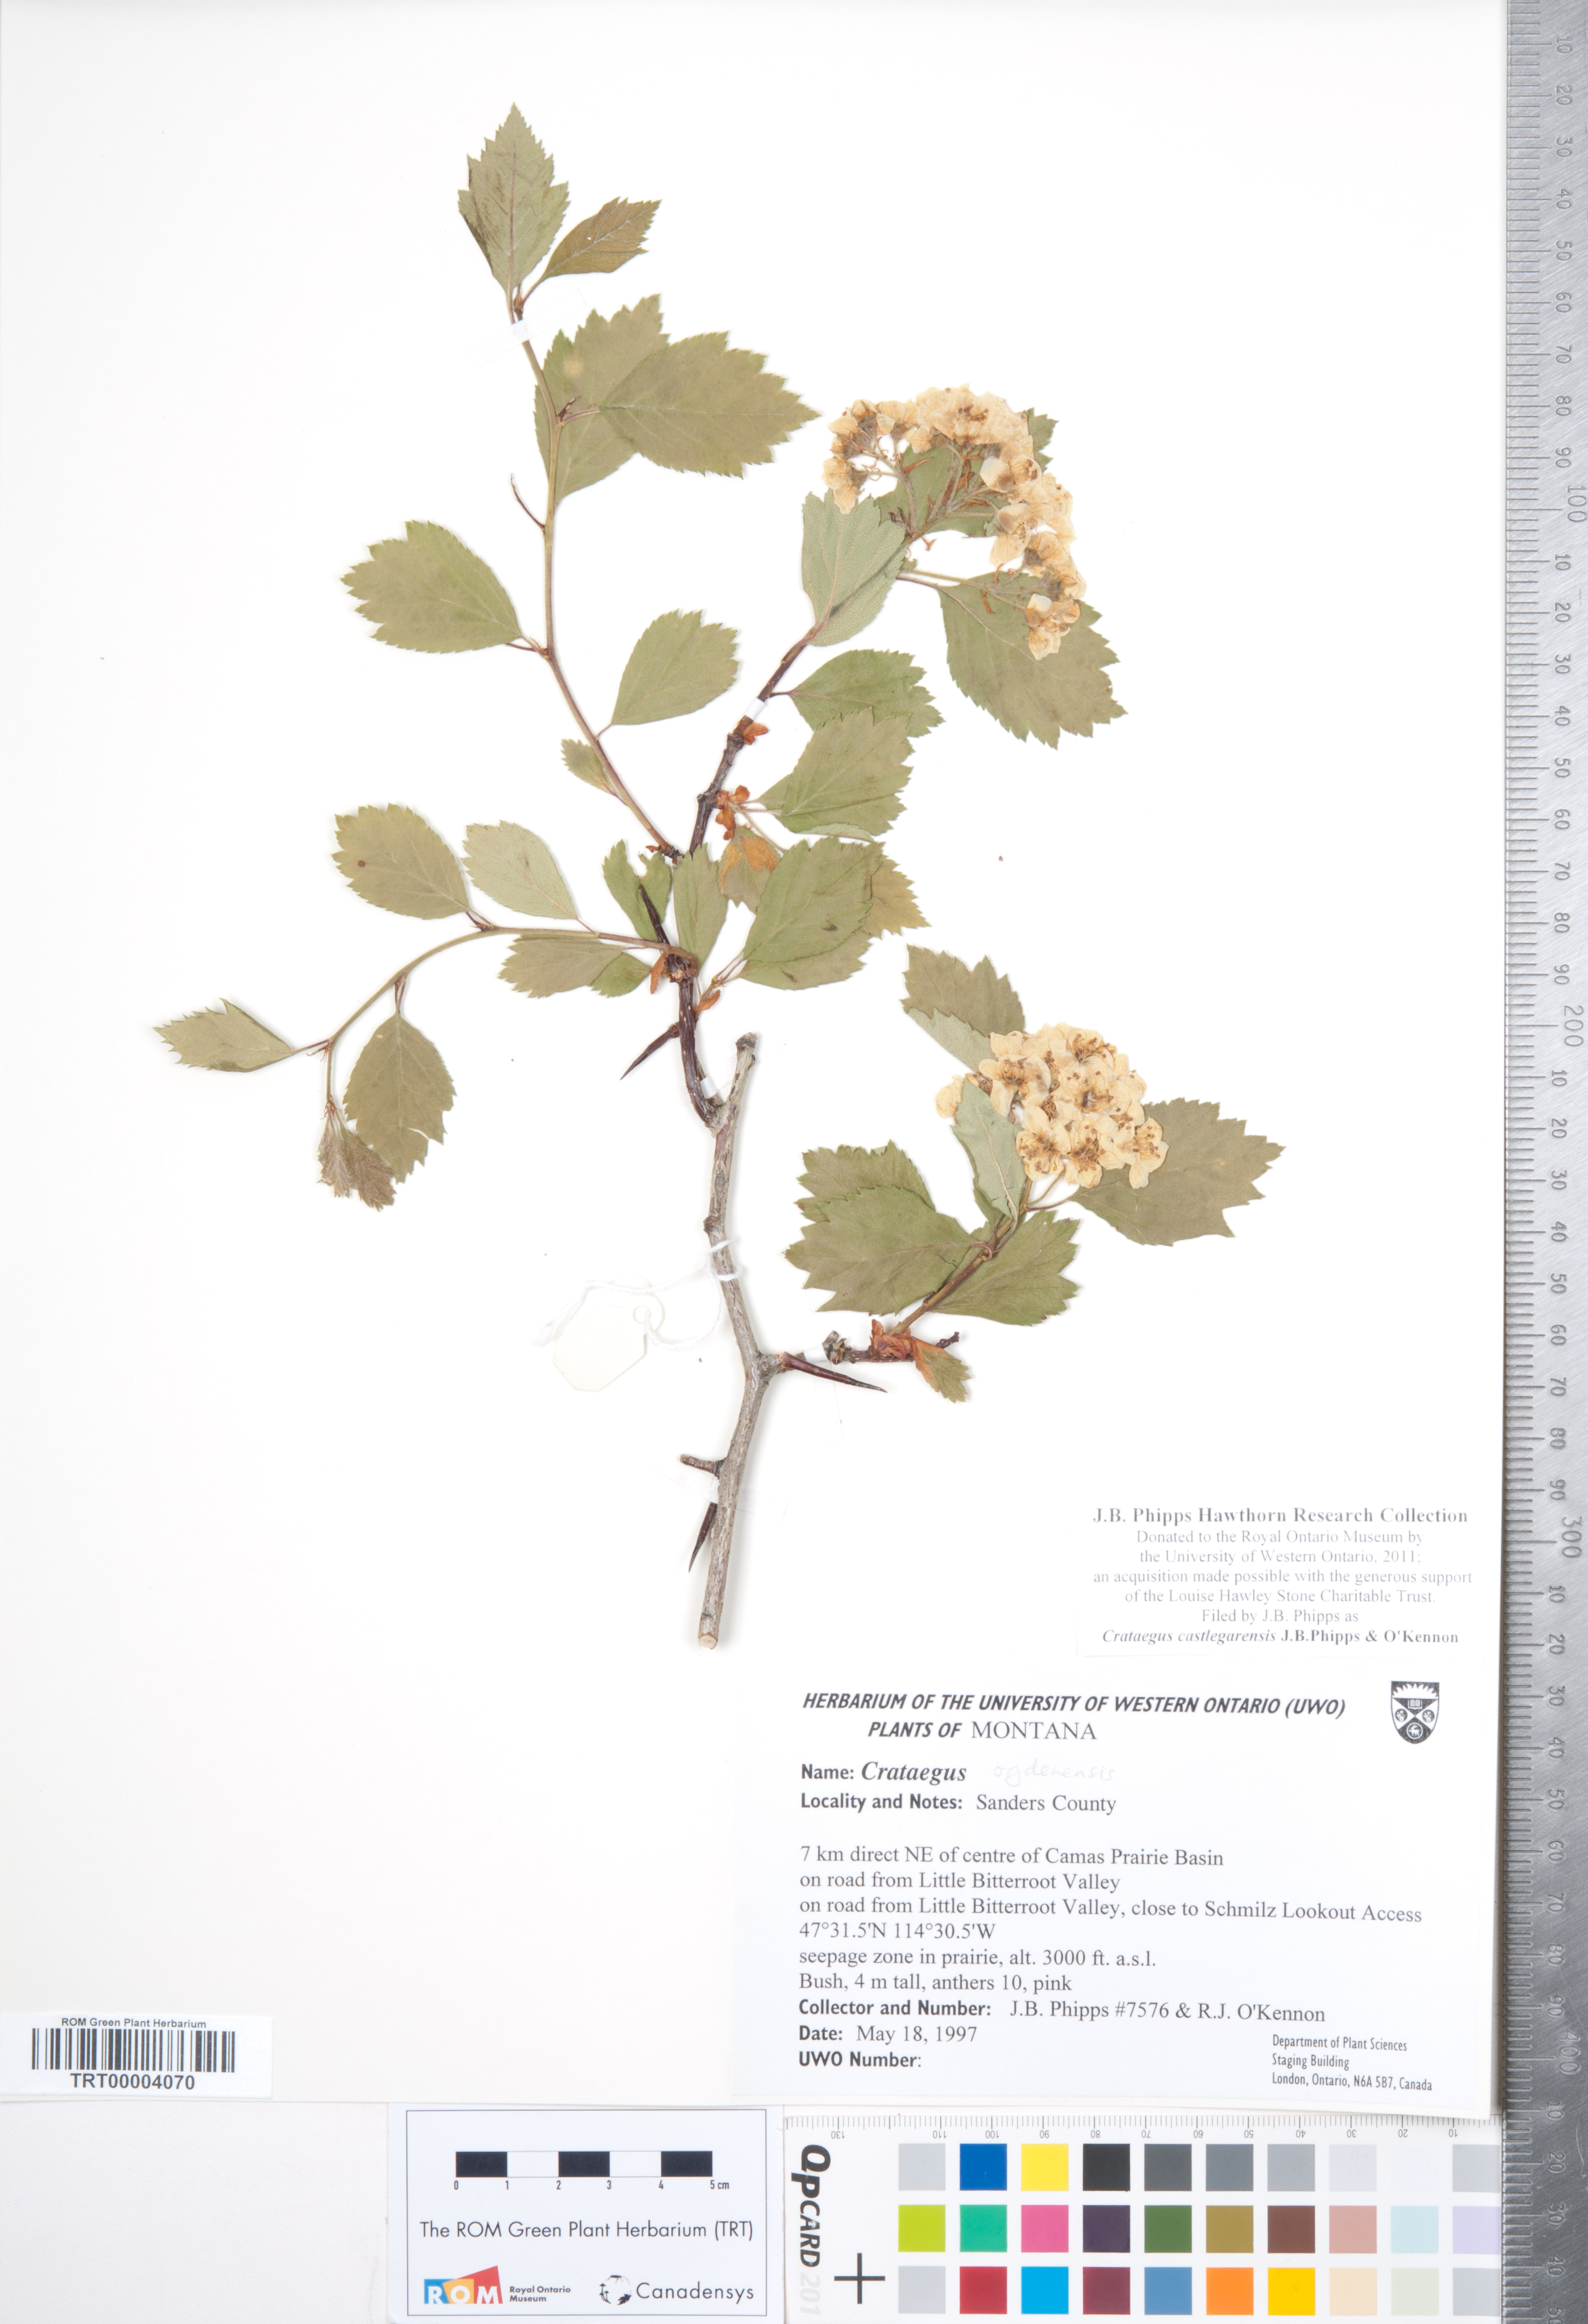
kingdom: Plantae
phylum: Tracheophyta
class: Magnoliopsida
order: Rosales
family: Rosaceae
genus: Crataegus
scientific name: Crataegus castlegarensis
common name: Castlegar hawthorn
